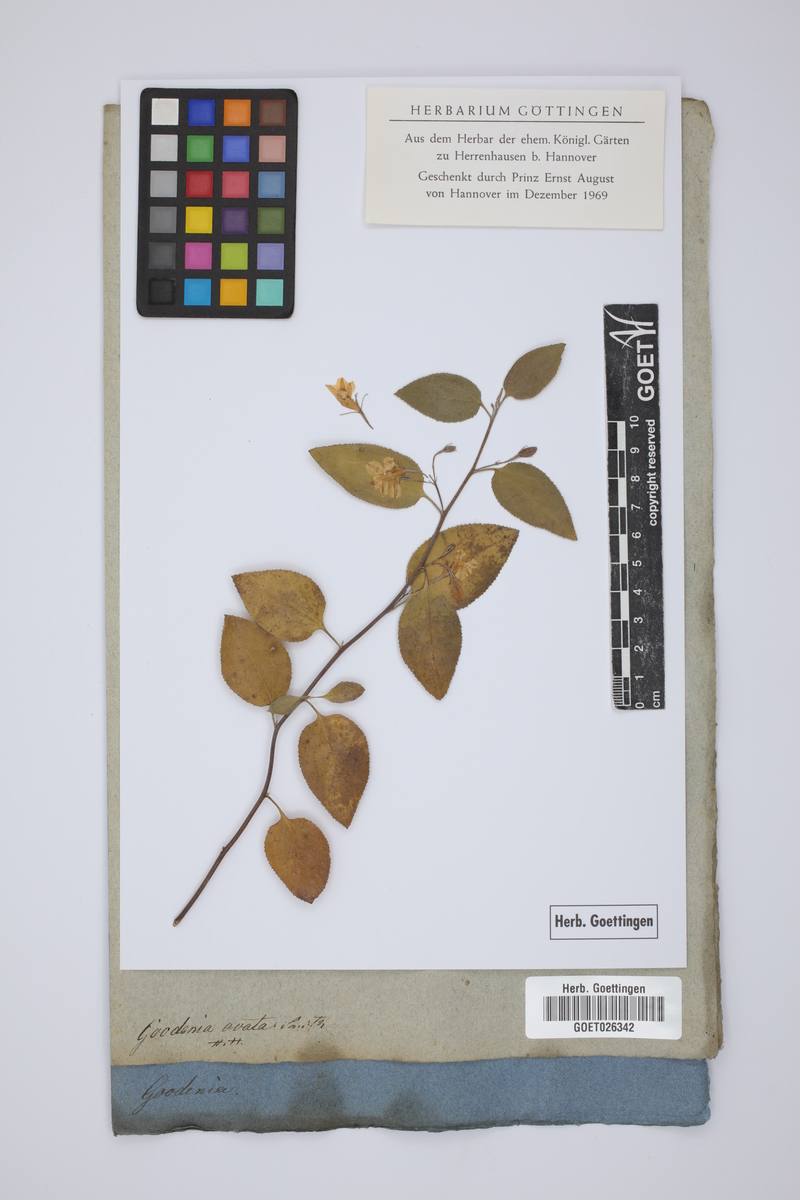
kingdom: Plantae
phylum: Tracheophyta
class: Magnoliopsida
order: Asterales
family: Goodeniaceae
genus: Goodenia
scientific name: Goodenia ovata
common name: Hop goodenia
